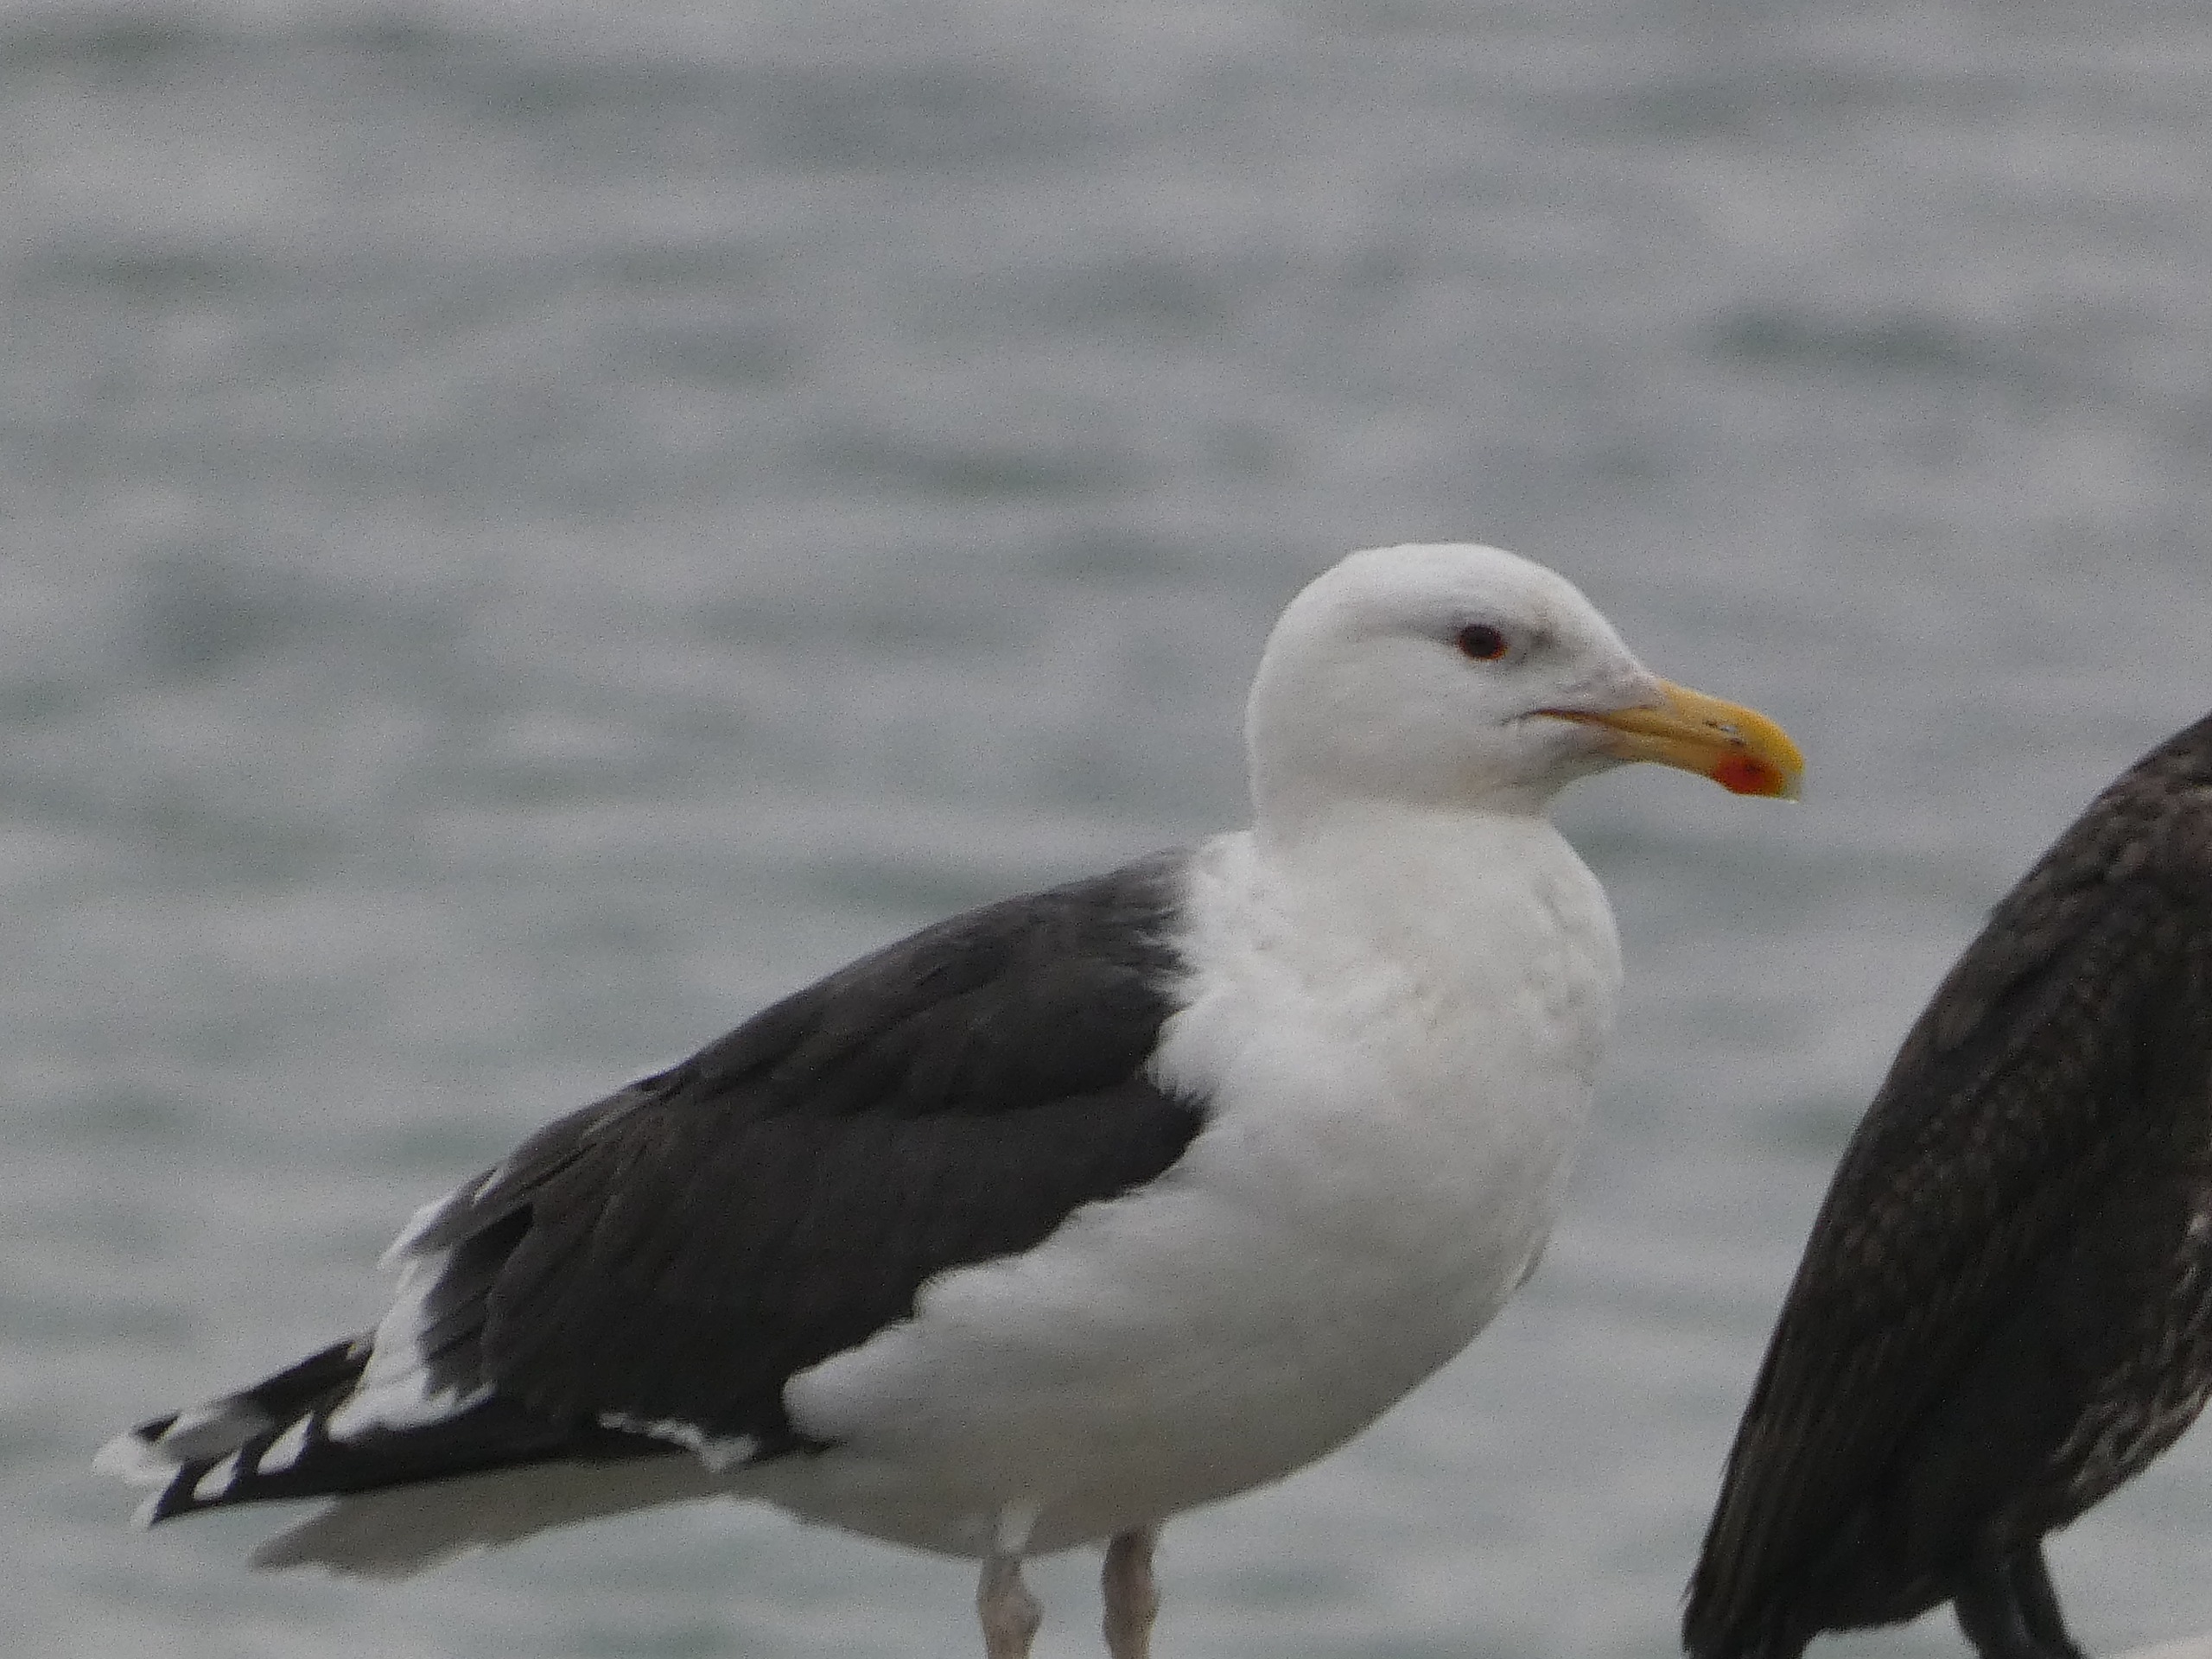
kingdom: Animalia
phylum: Chordata
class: Aves
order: Charadriiformes
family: Laridae
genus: Larus
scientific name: Larus marinus
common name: Svartbag
